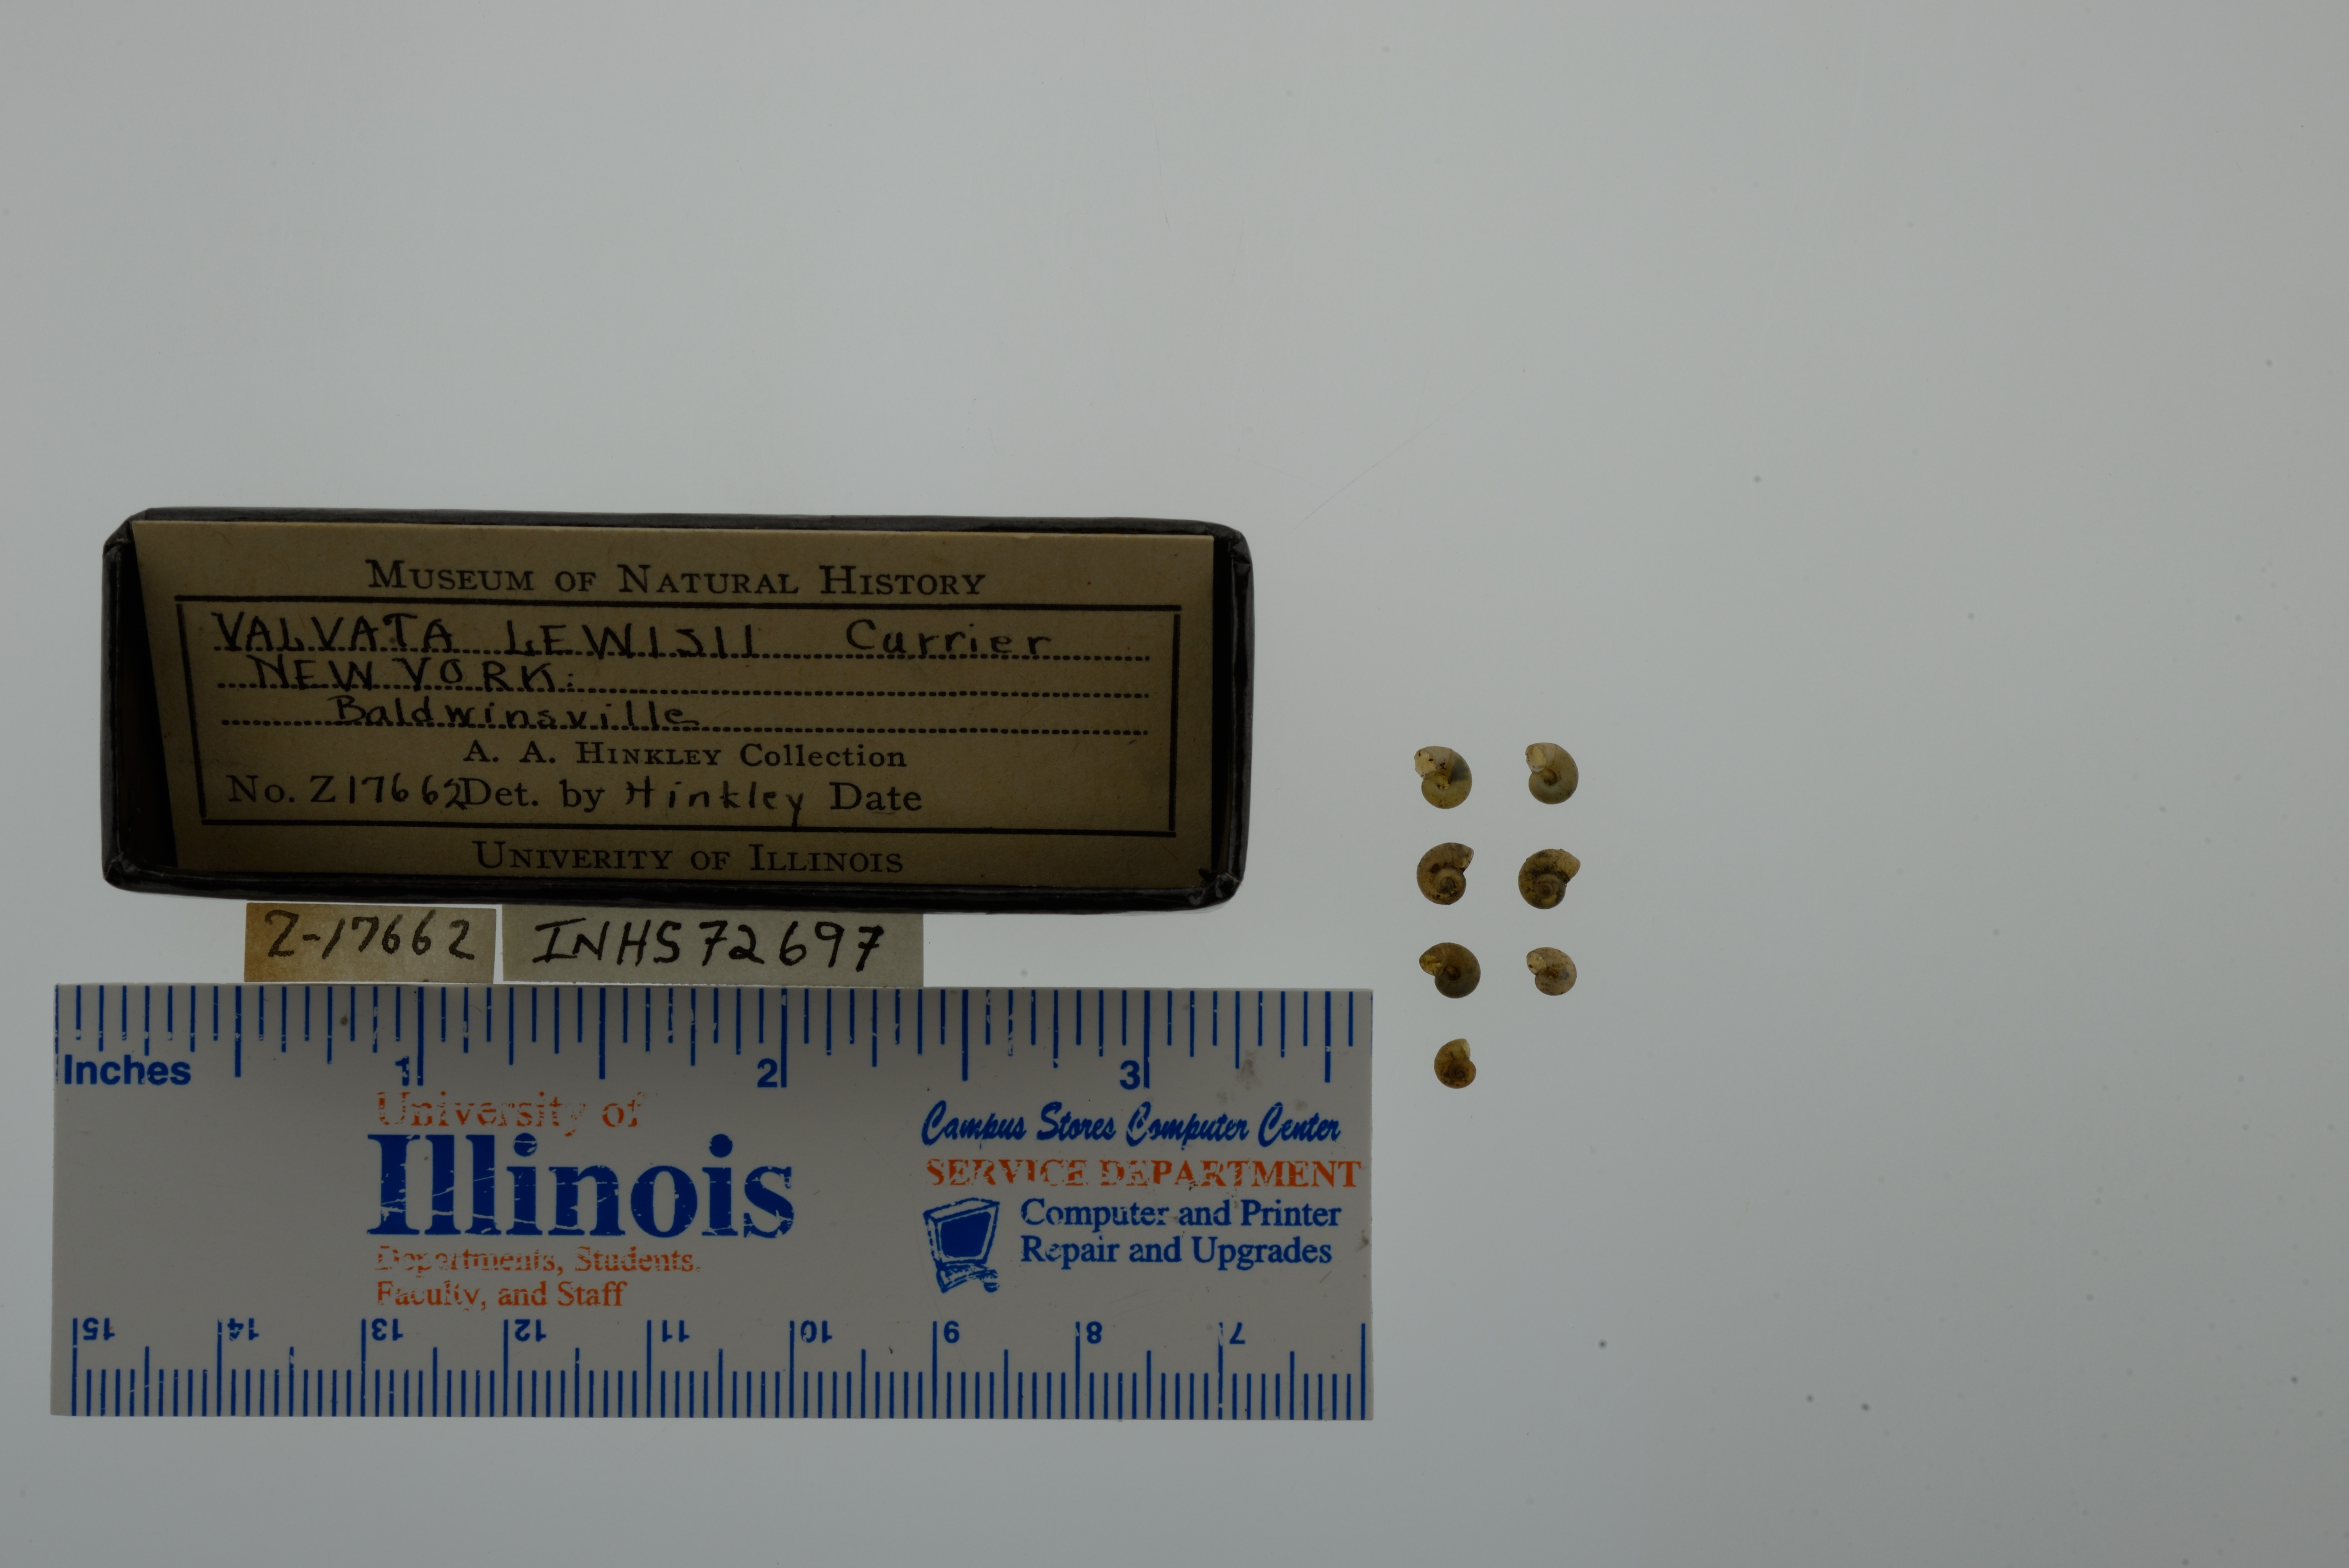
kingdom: Animalia
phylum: Mollusca
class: Gastropoda
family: Valvatidae
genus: Valvata
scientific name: Valvata lewisi
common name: Fringed valvata
